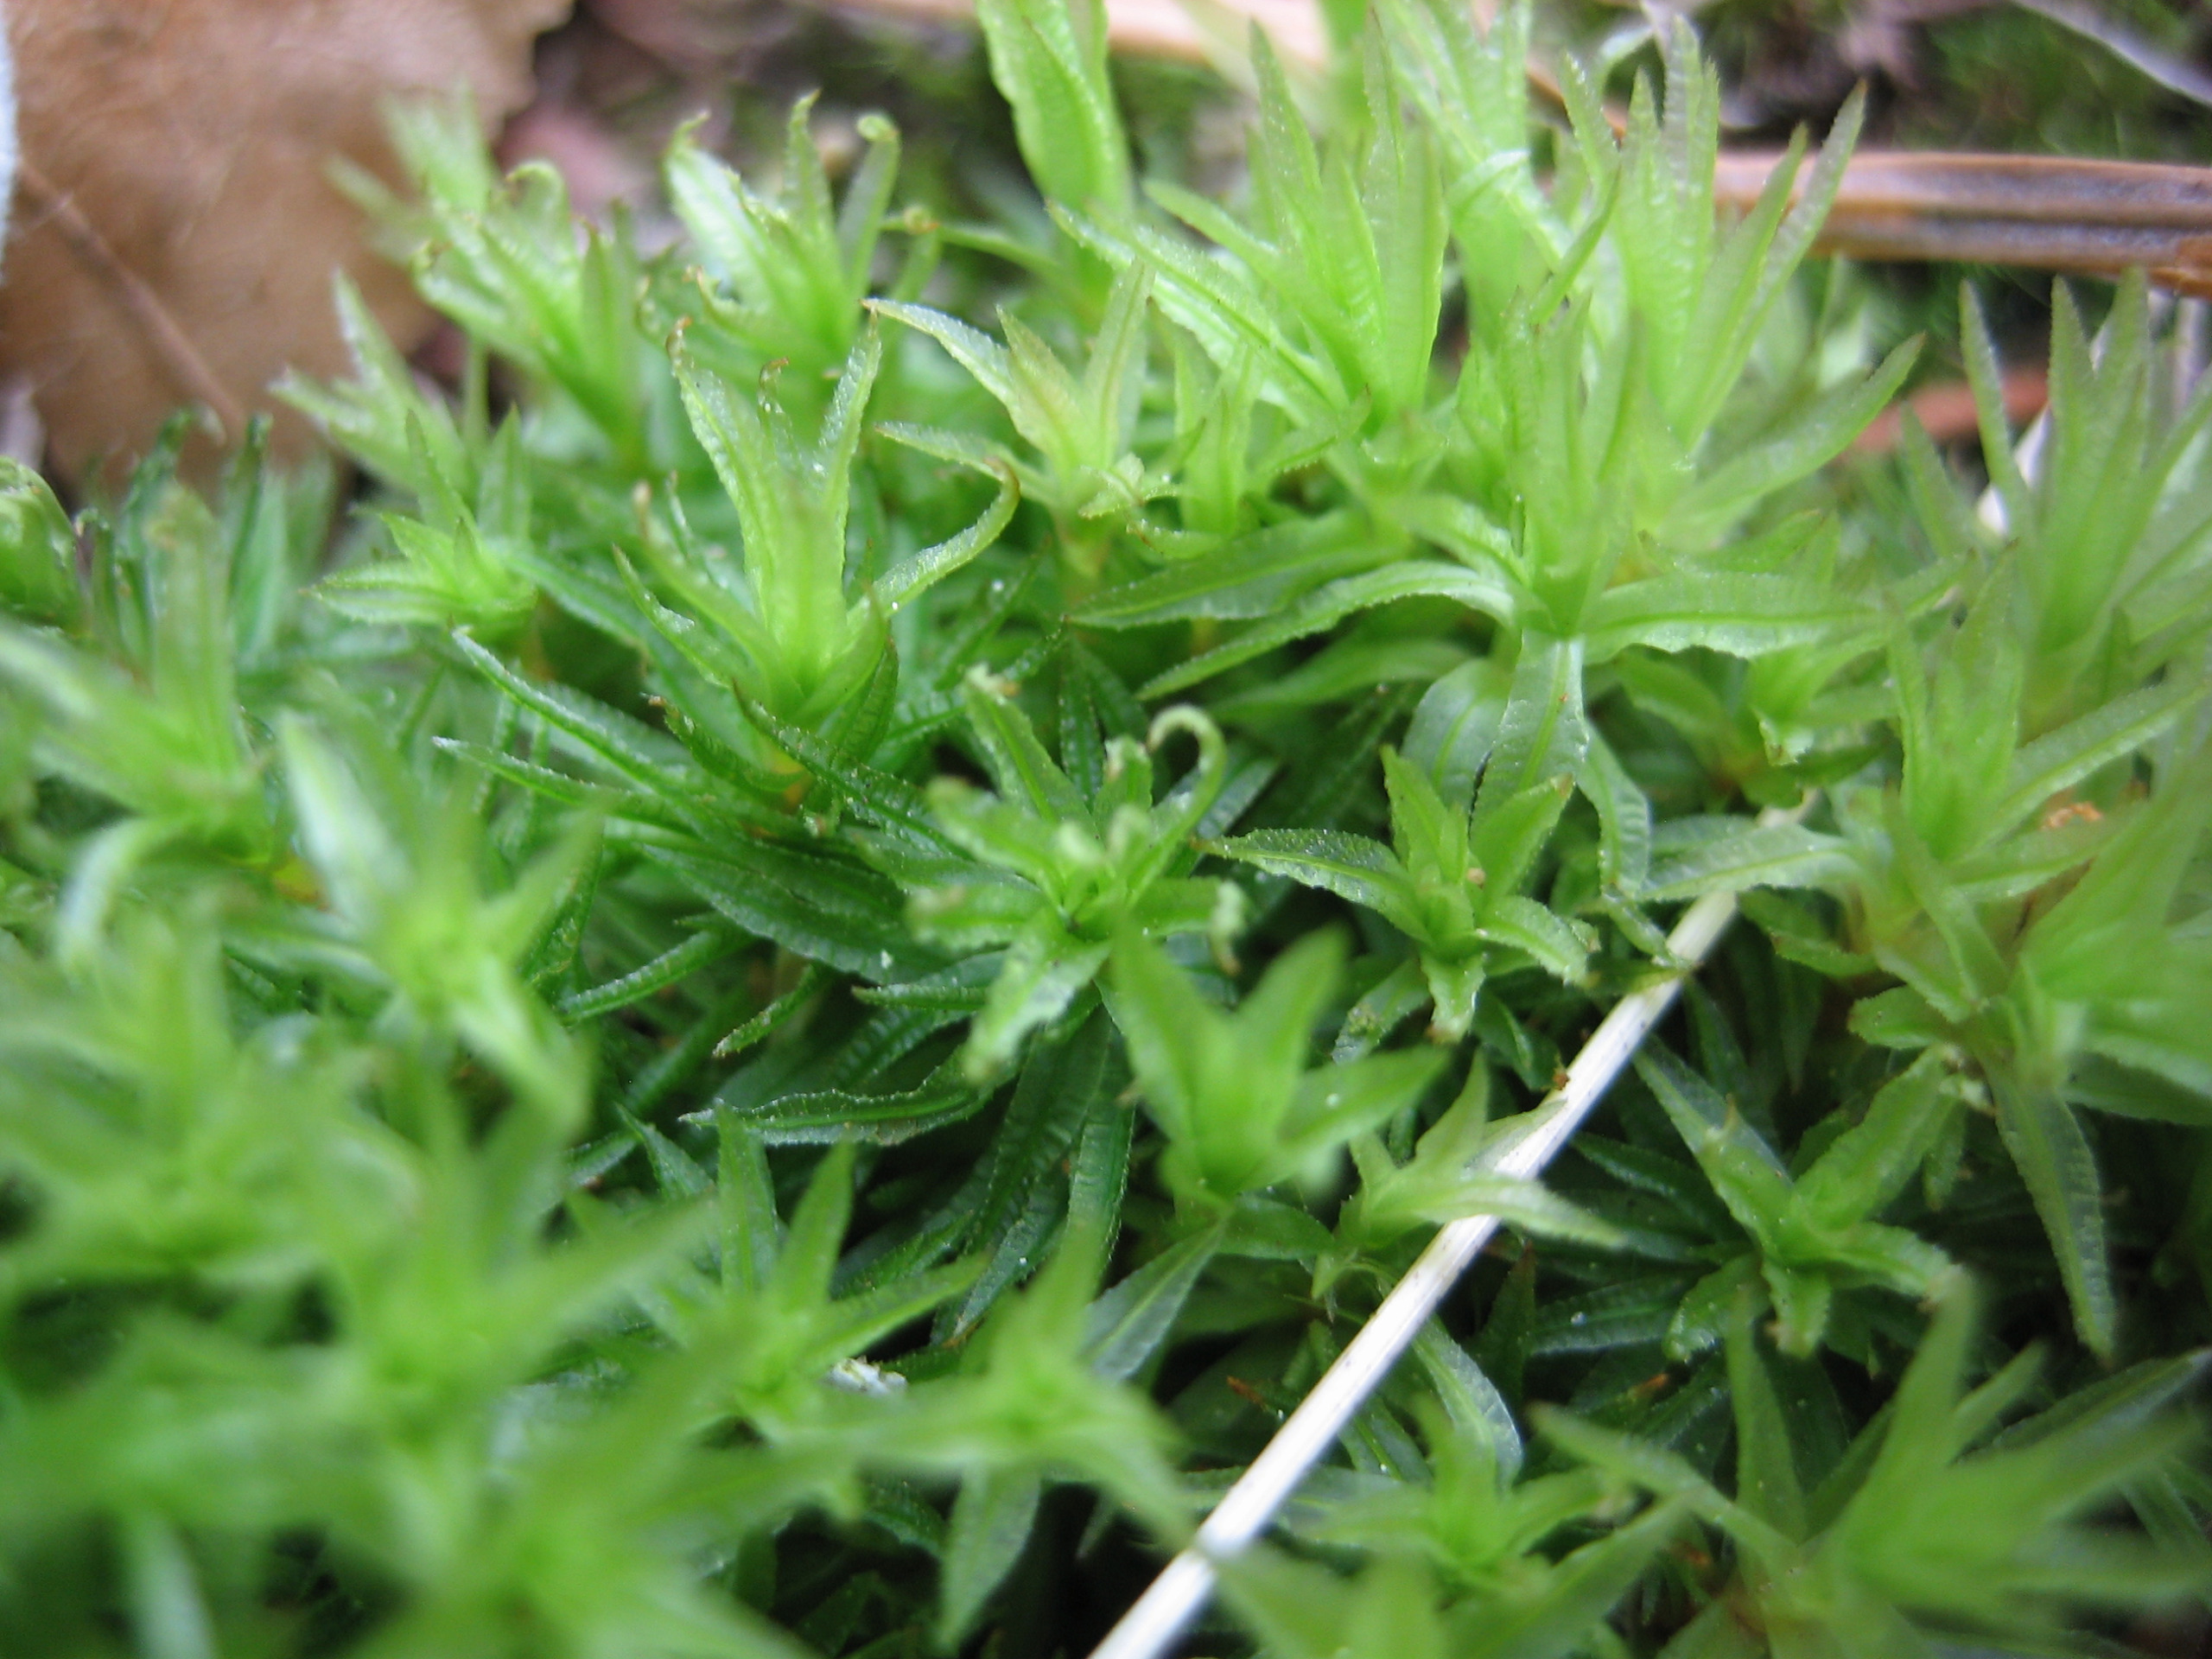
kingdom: Plantae
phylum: Bryophyta
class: Polytrichopsida
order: Polytrichales
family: Polytrichaceae
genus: Atrichum
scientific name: Atrichum undulatum
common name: Bølget katrinemos
